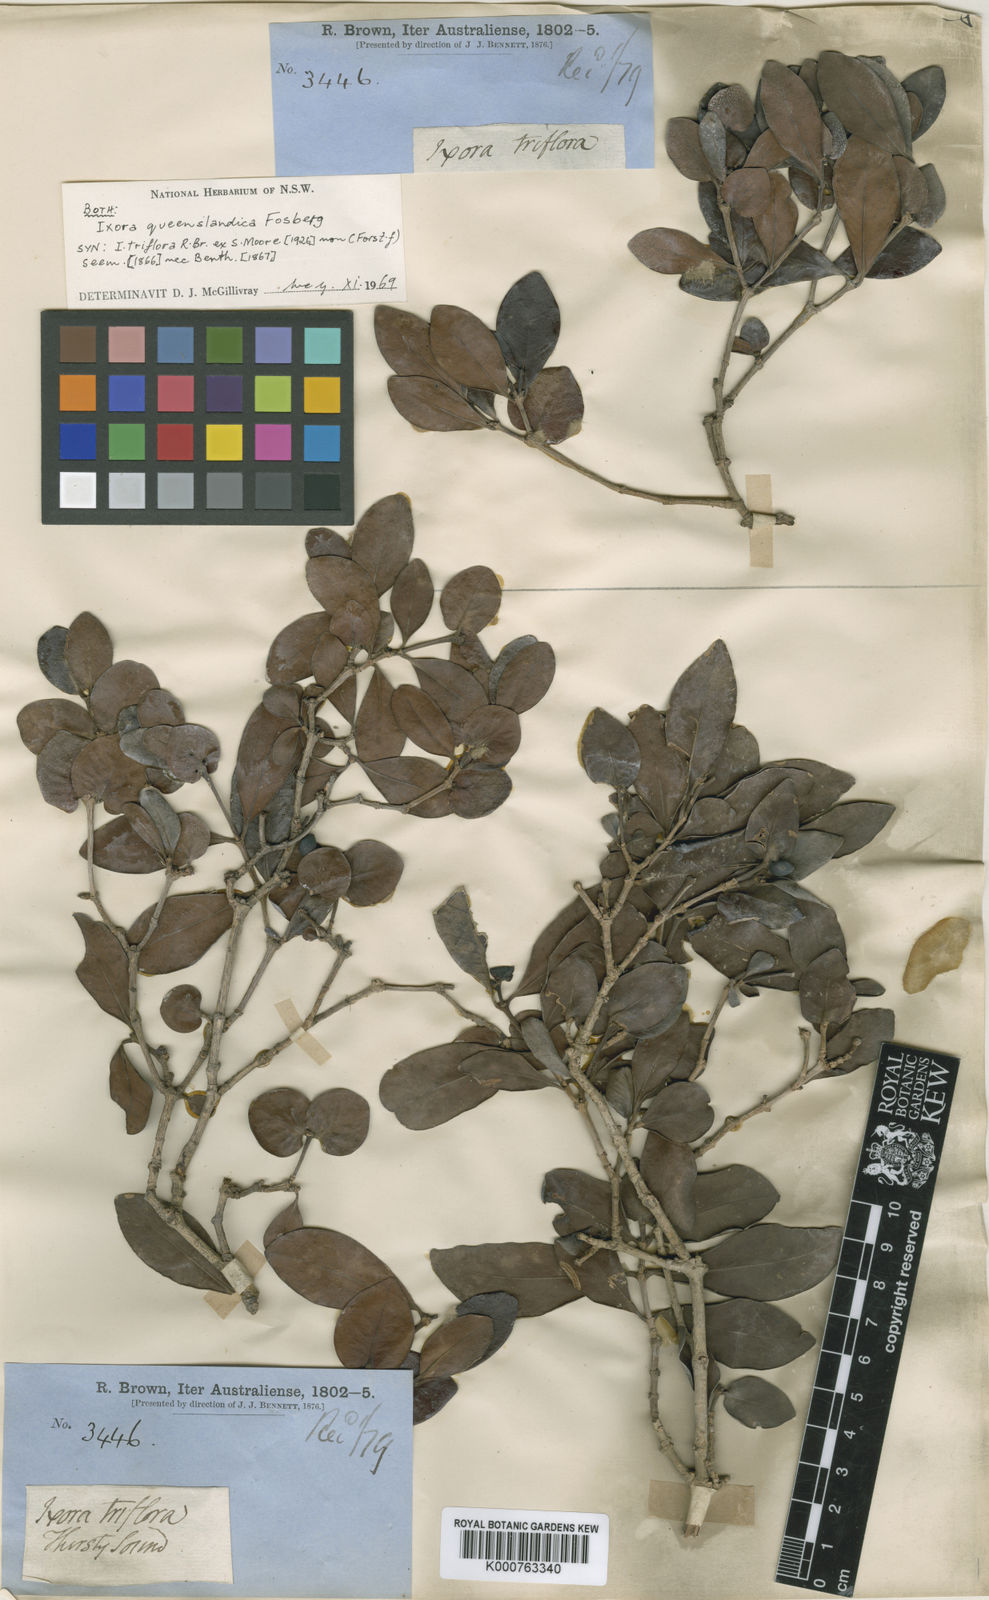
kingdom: Plantae
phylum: Tracheophyta
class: Magnoliopsida
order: Gentianales
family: Rubiaceae
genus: Triflorensia
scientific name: Triflorensia ixoroides
